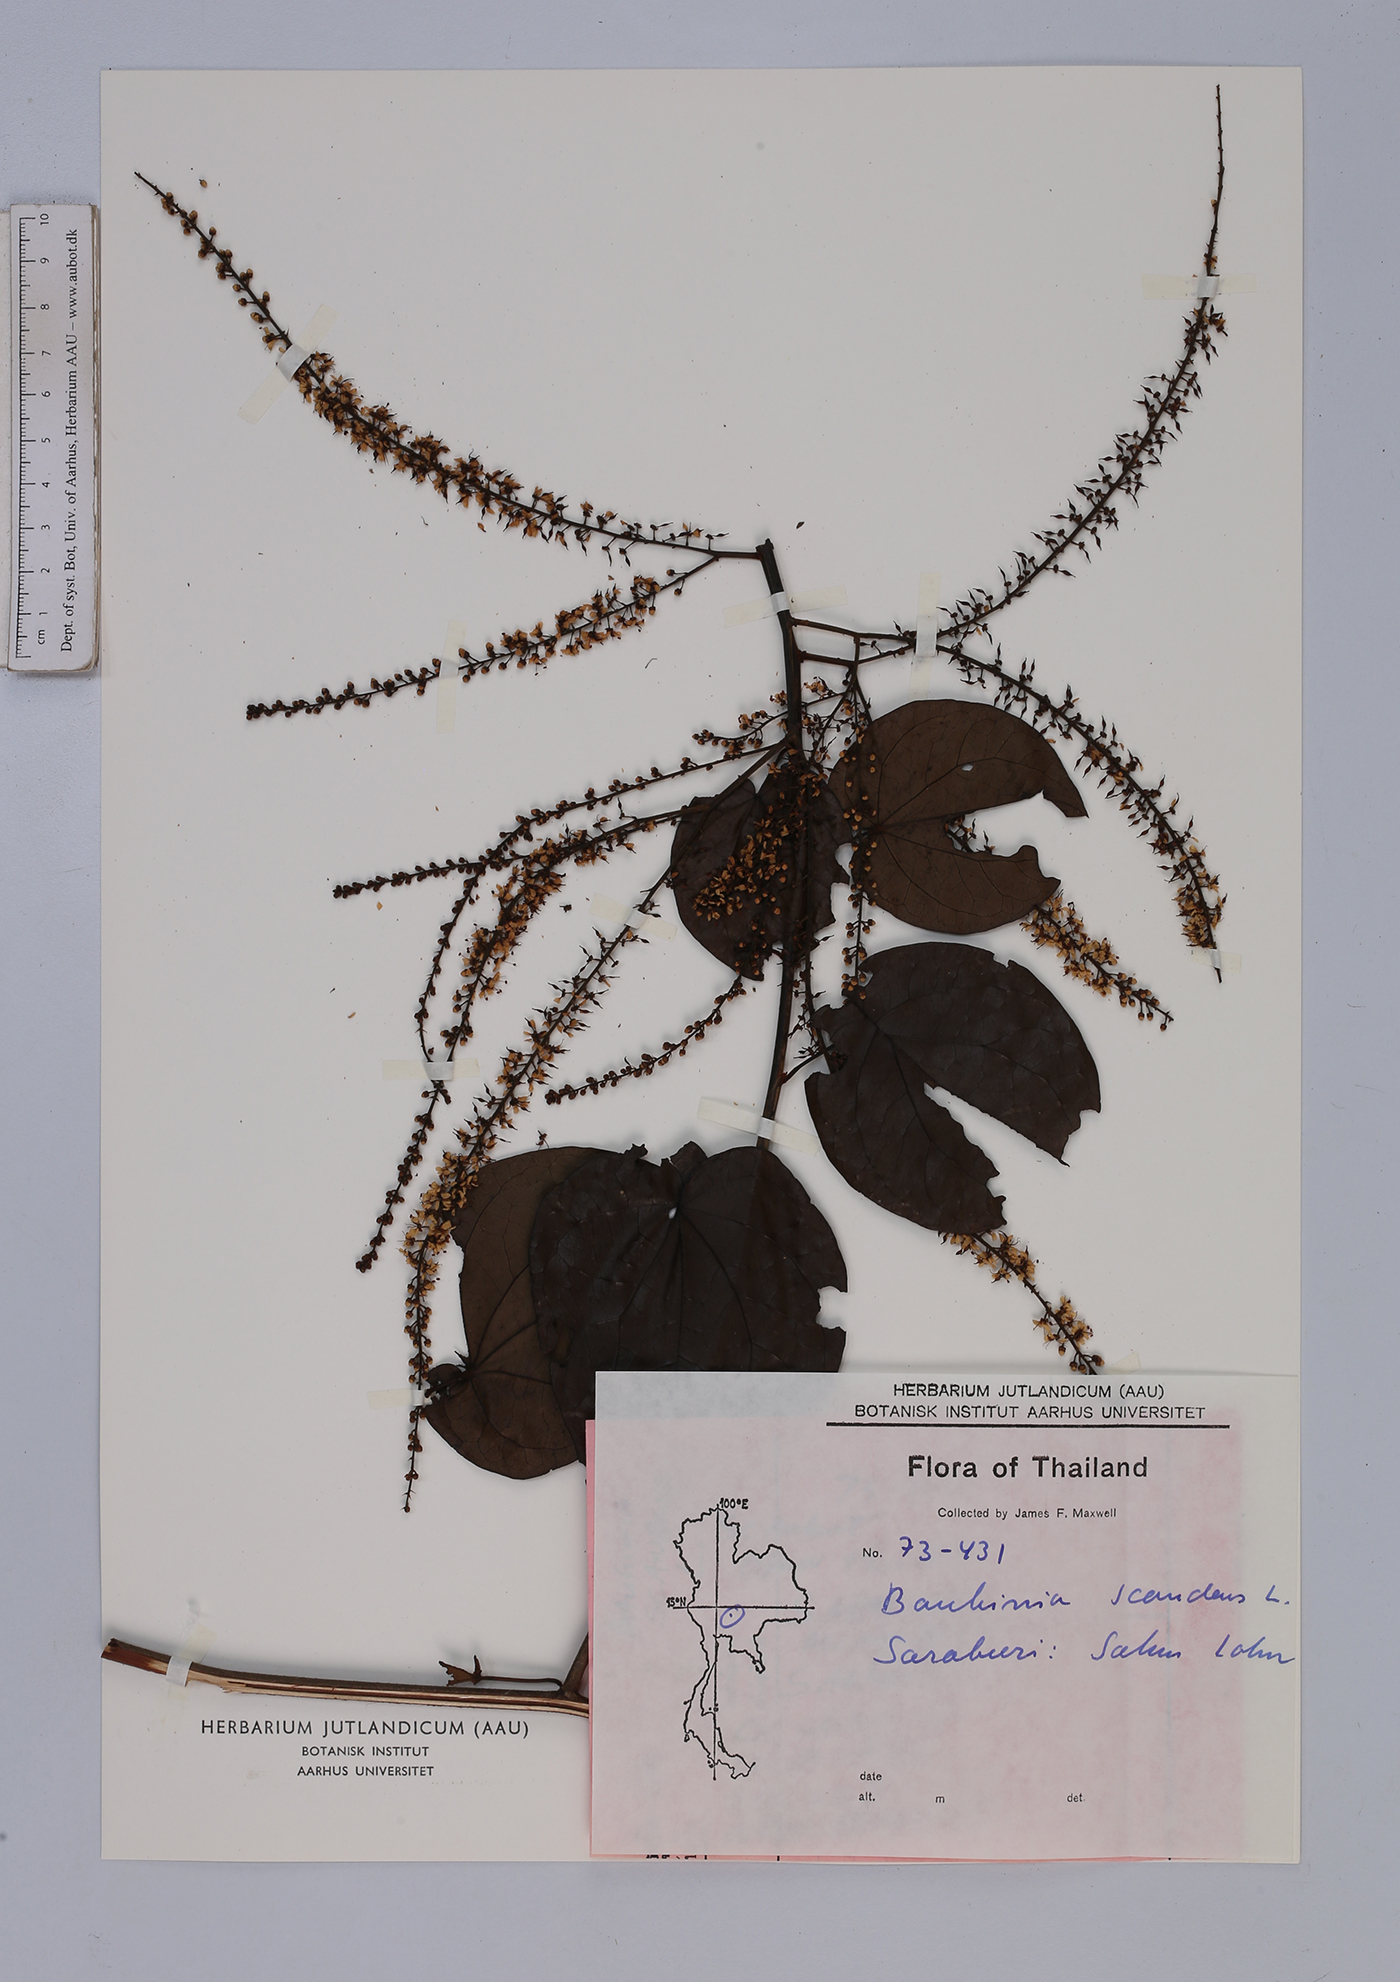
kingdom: Plantae
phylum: Tracheophyta
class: Magnoliopsida
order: Fabales
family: Fabaceae
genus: Phanera
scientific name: Phanera scandens
